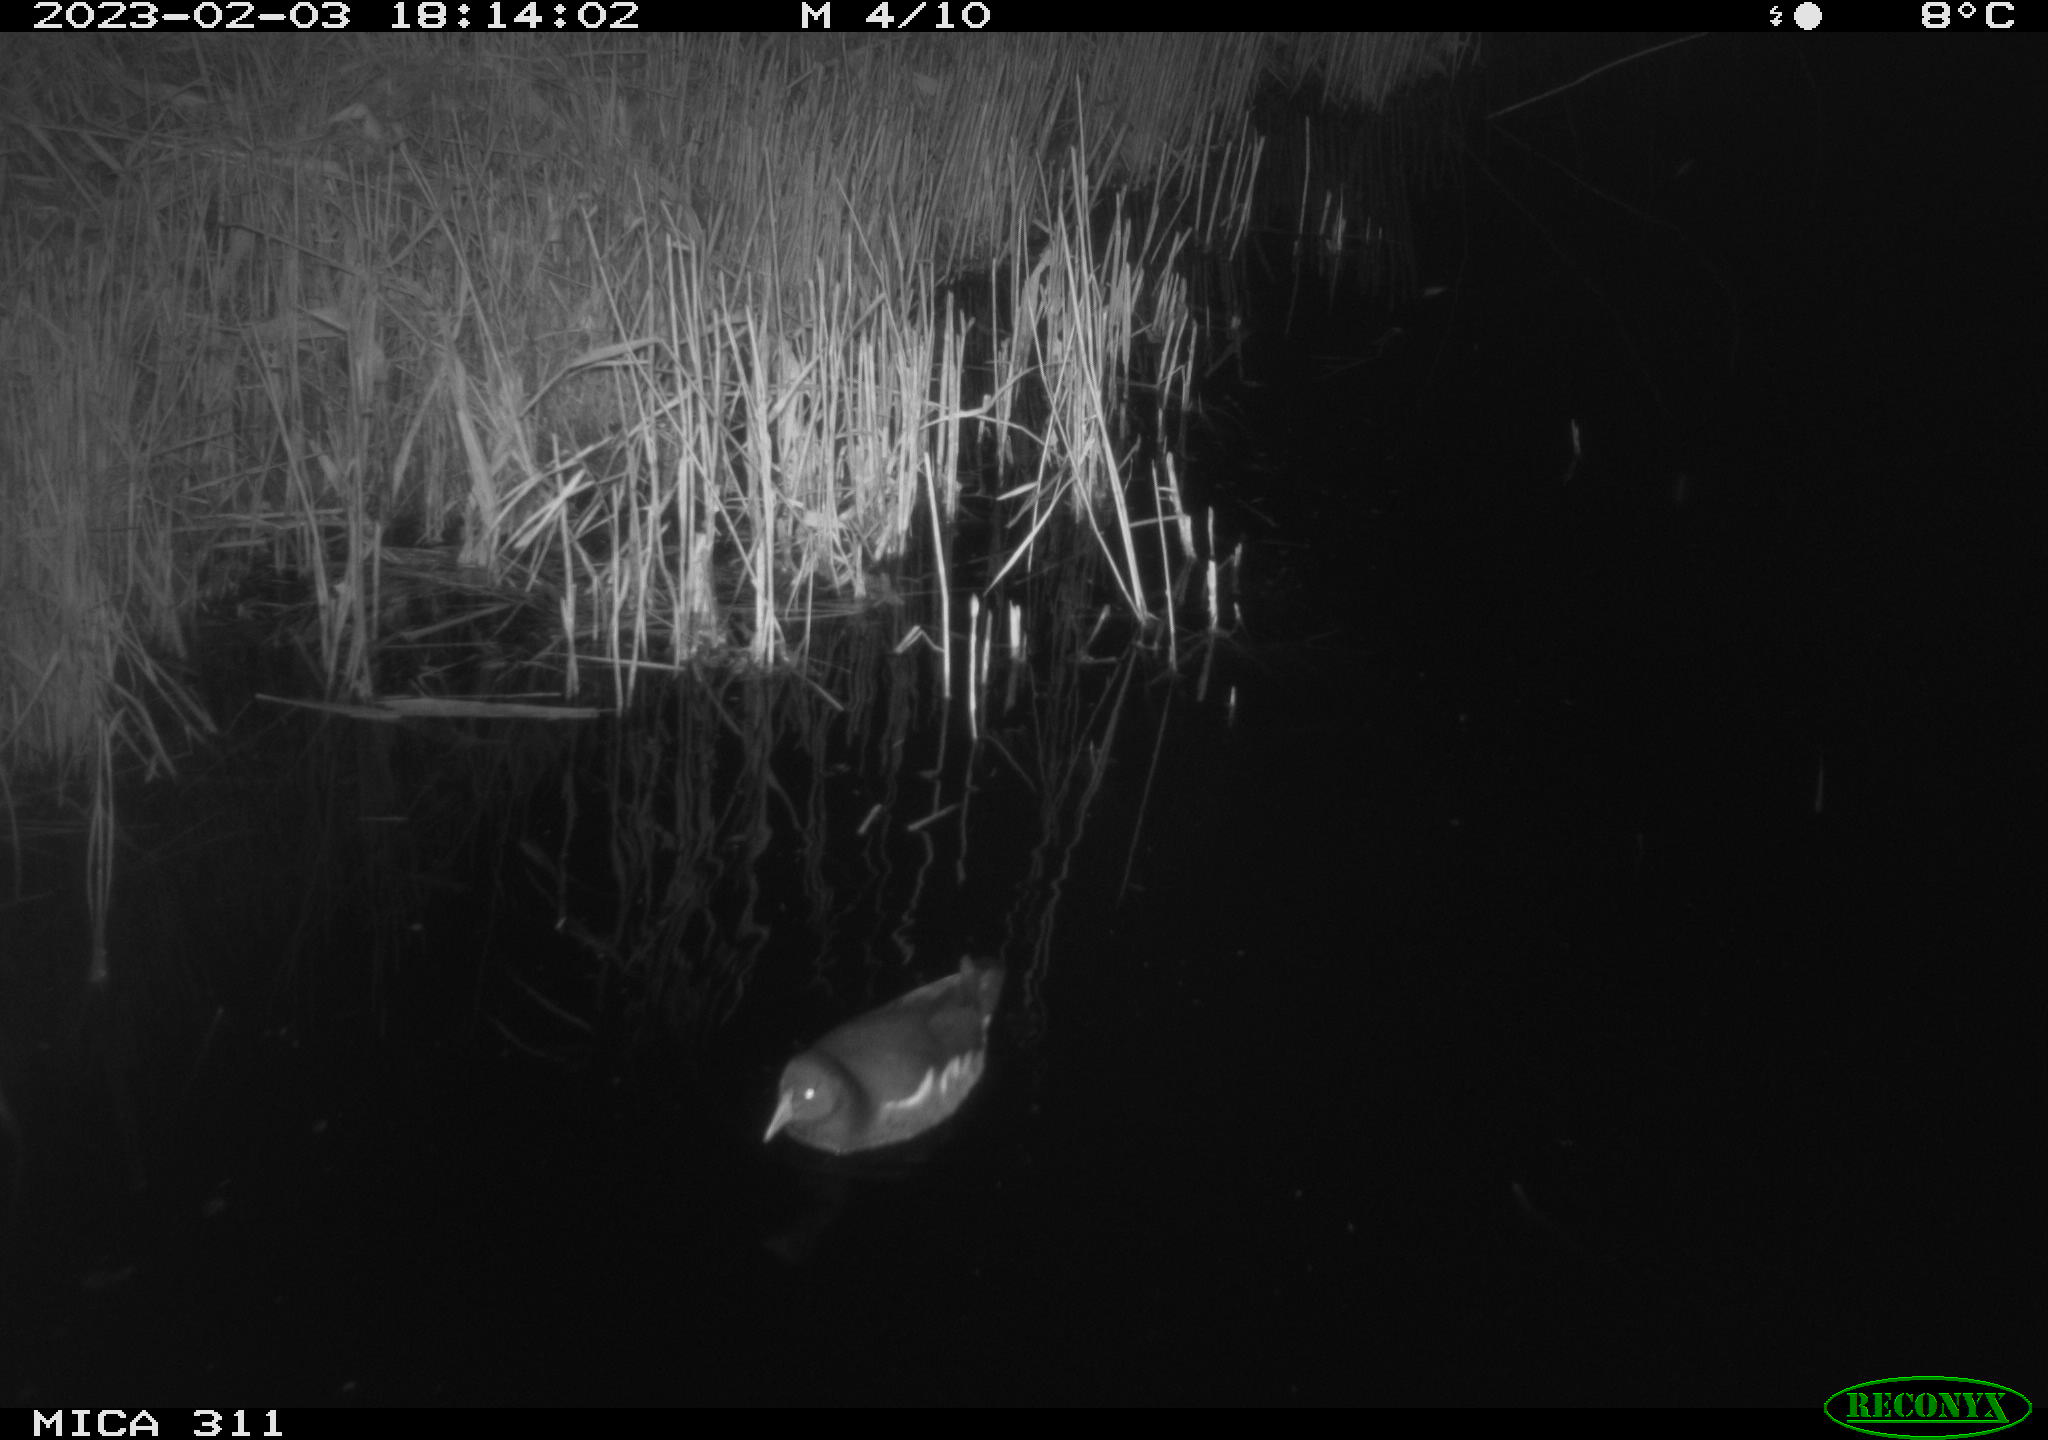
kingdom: Animalia
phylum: Chordata
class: Aves
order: Gruiformes
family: Rallidae
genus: Gallinula
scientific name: Gallinula chloropus
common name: Common moorhen
